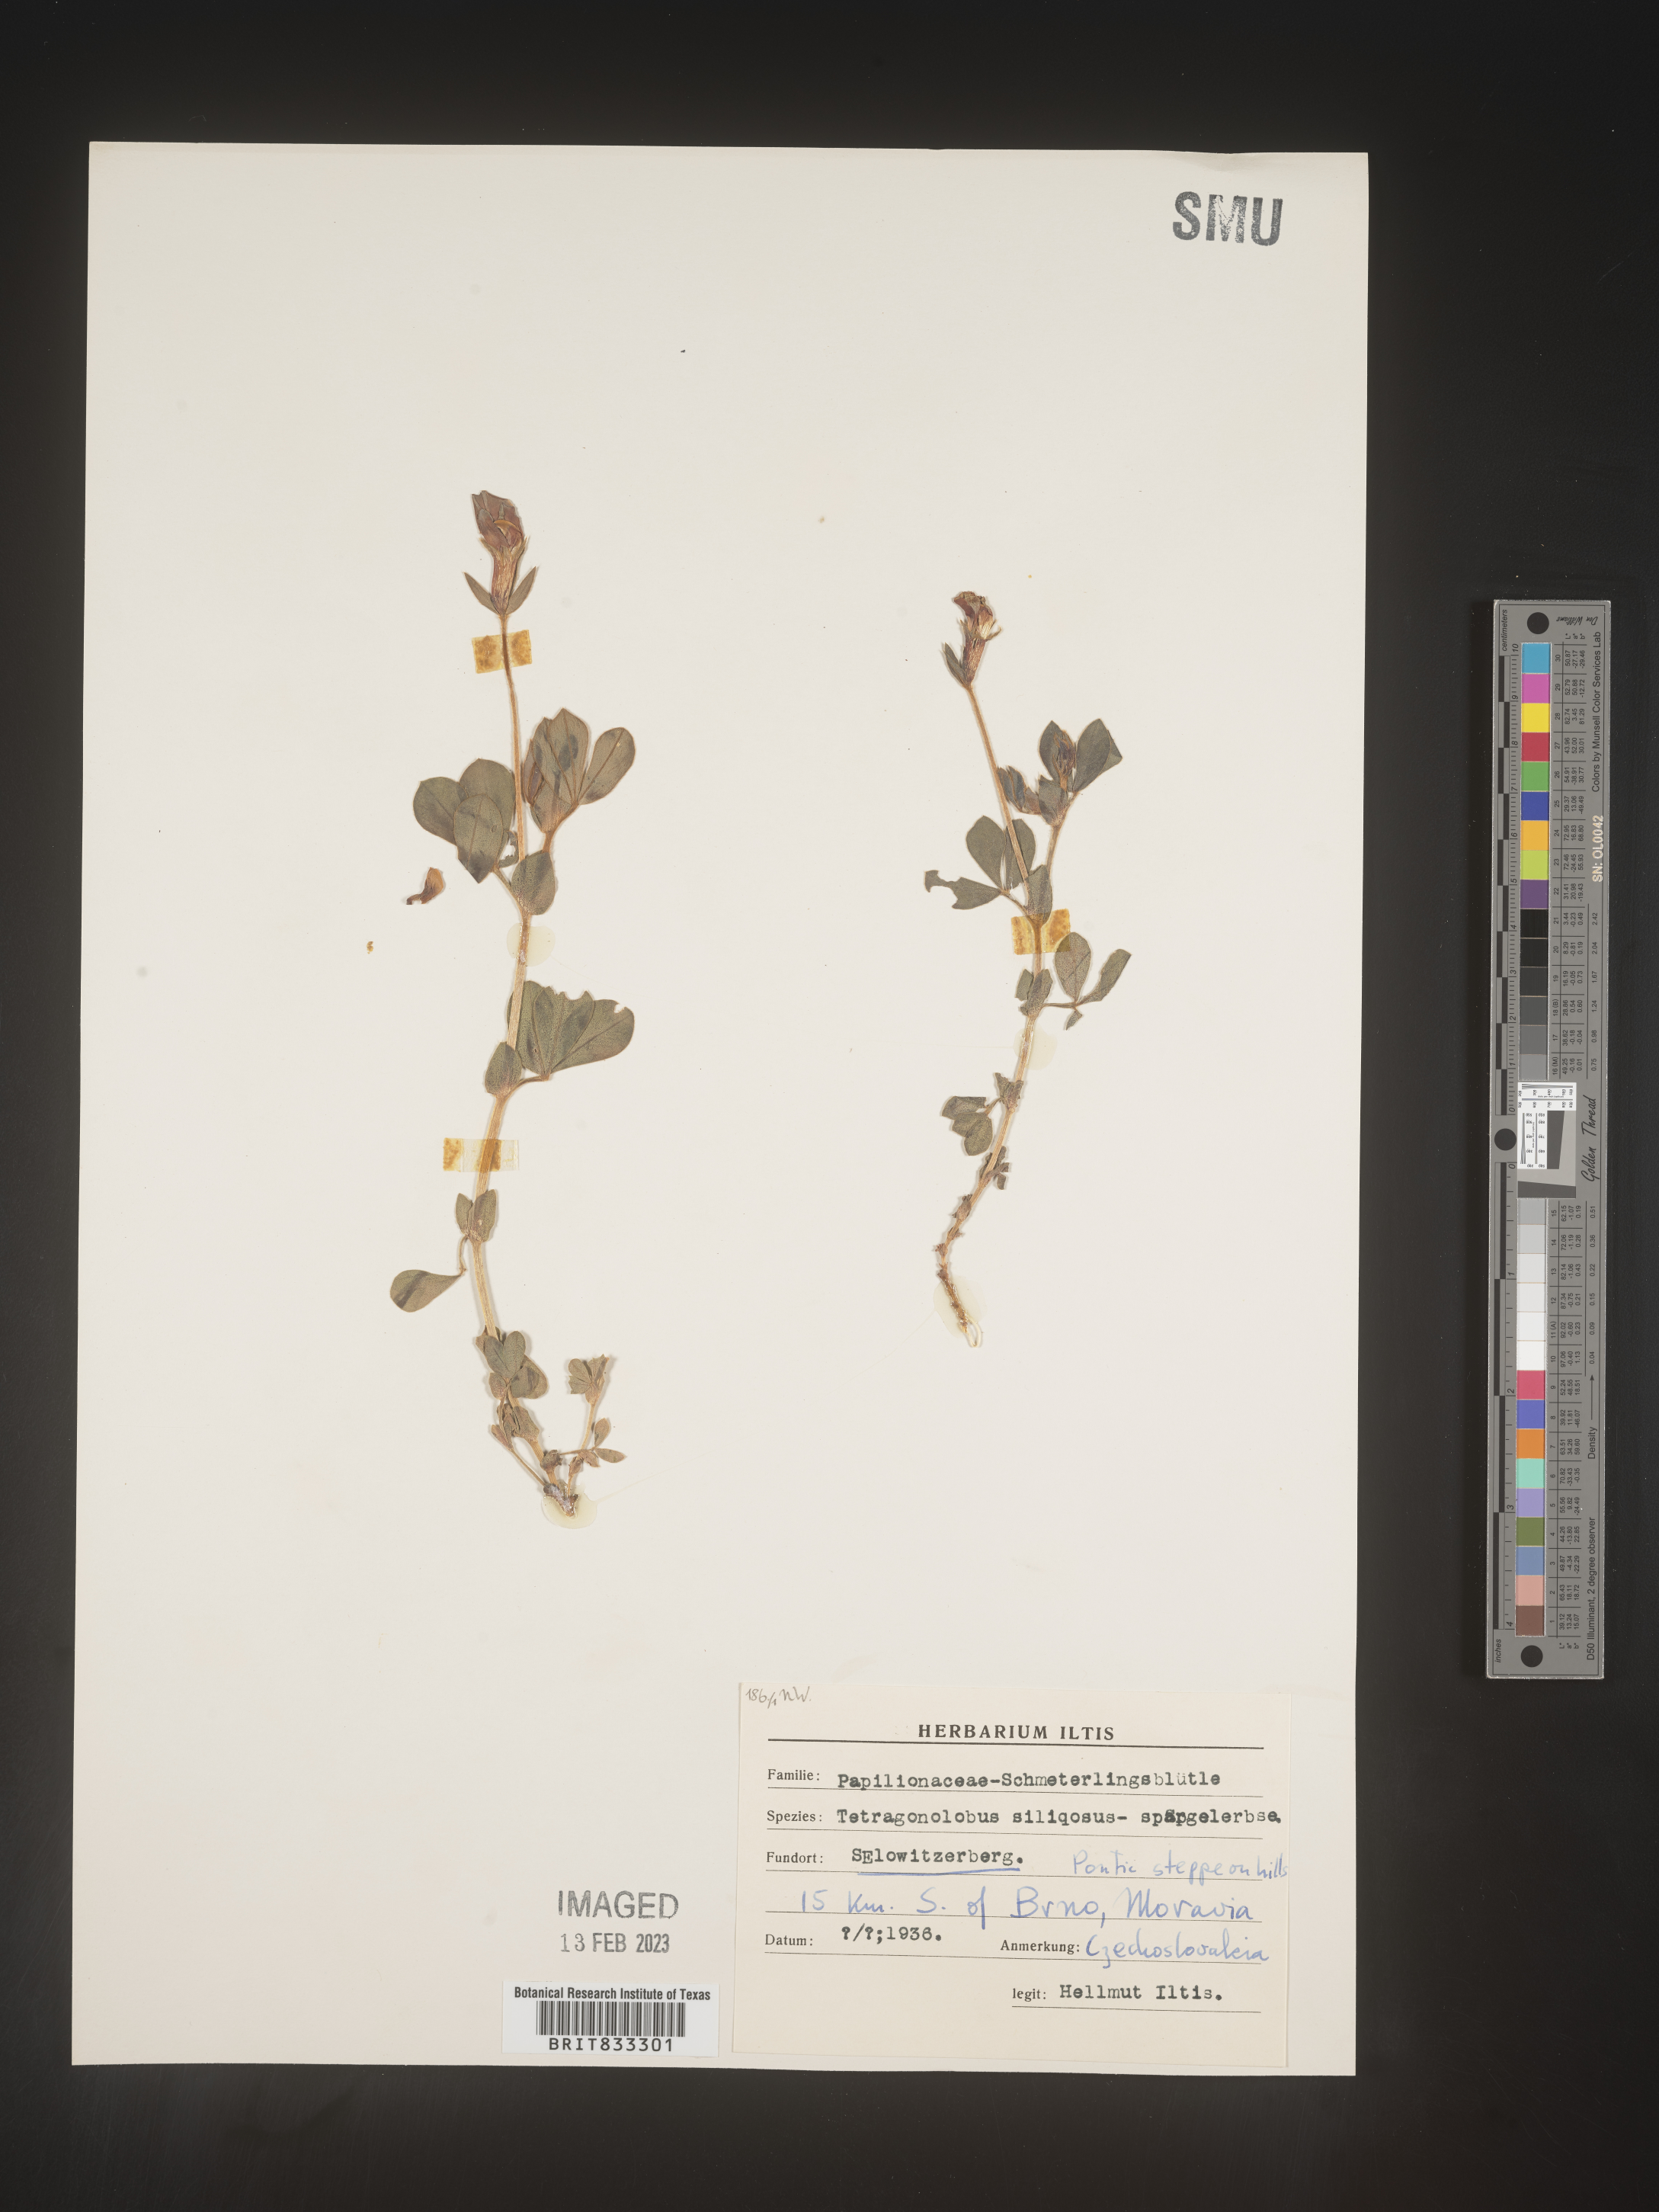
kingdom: Plantae
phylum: Tracheophyta
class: Magnoliopsida
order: Fabales
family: Fabaceae
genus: Lotus
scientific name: Lotus
